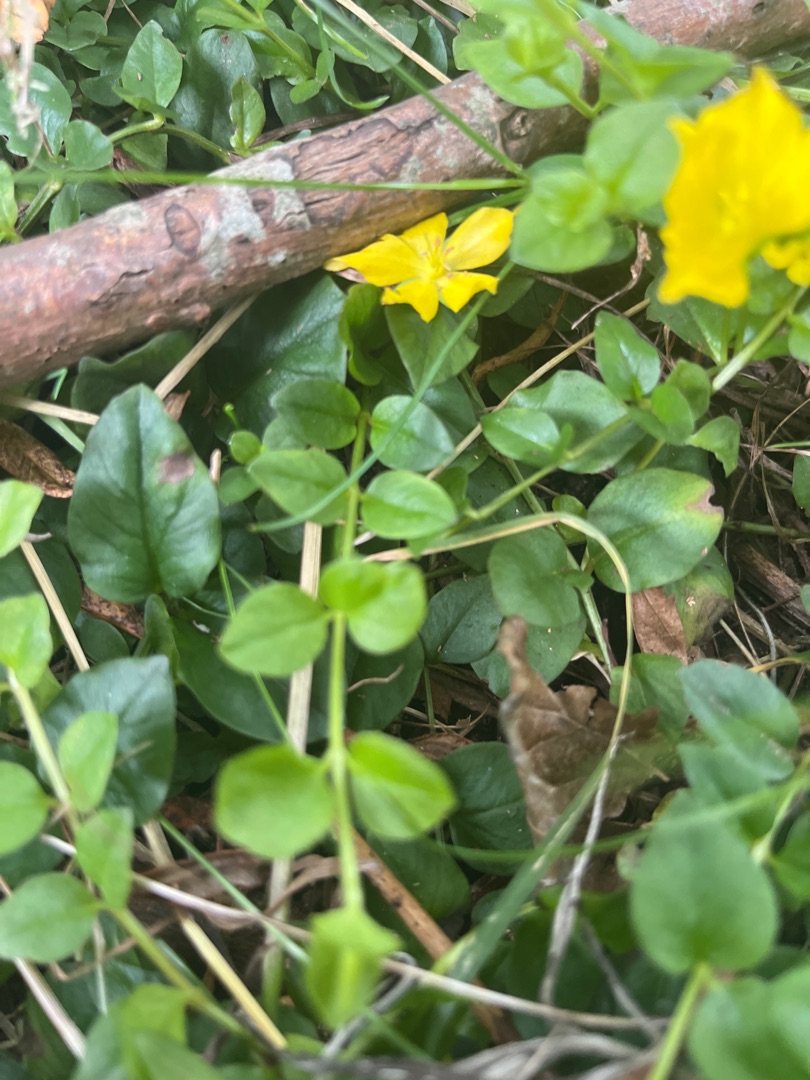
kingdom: Plantae
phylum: Tracheophyta
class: Magnoliopsida
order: Ericales
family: Primulaceae
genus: Lysimachia
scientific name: Lysimachia nummularia
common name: Pengebladet fredløs
